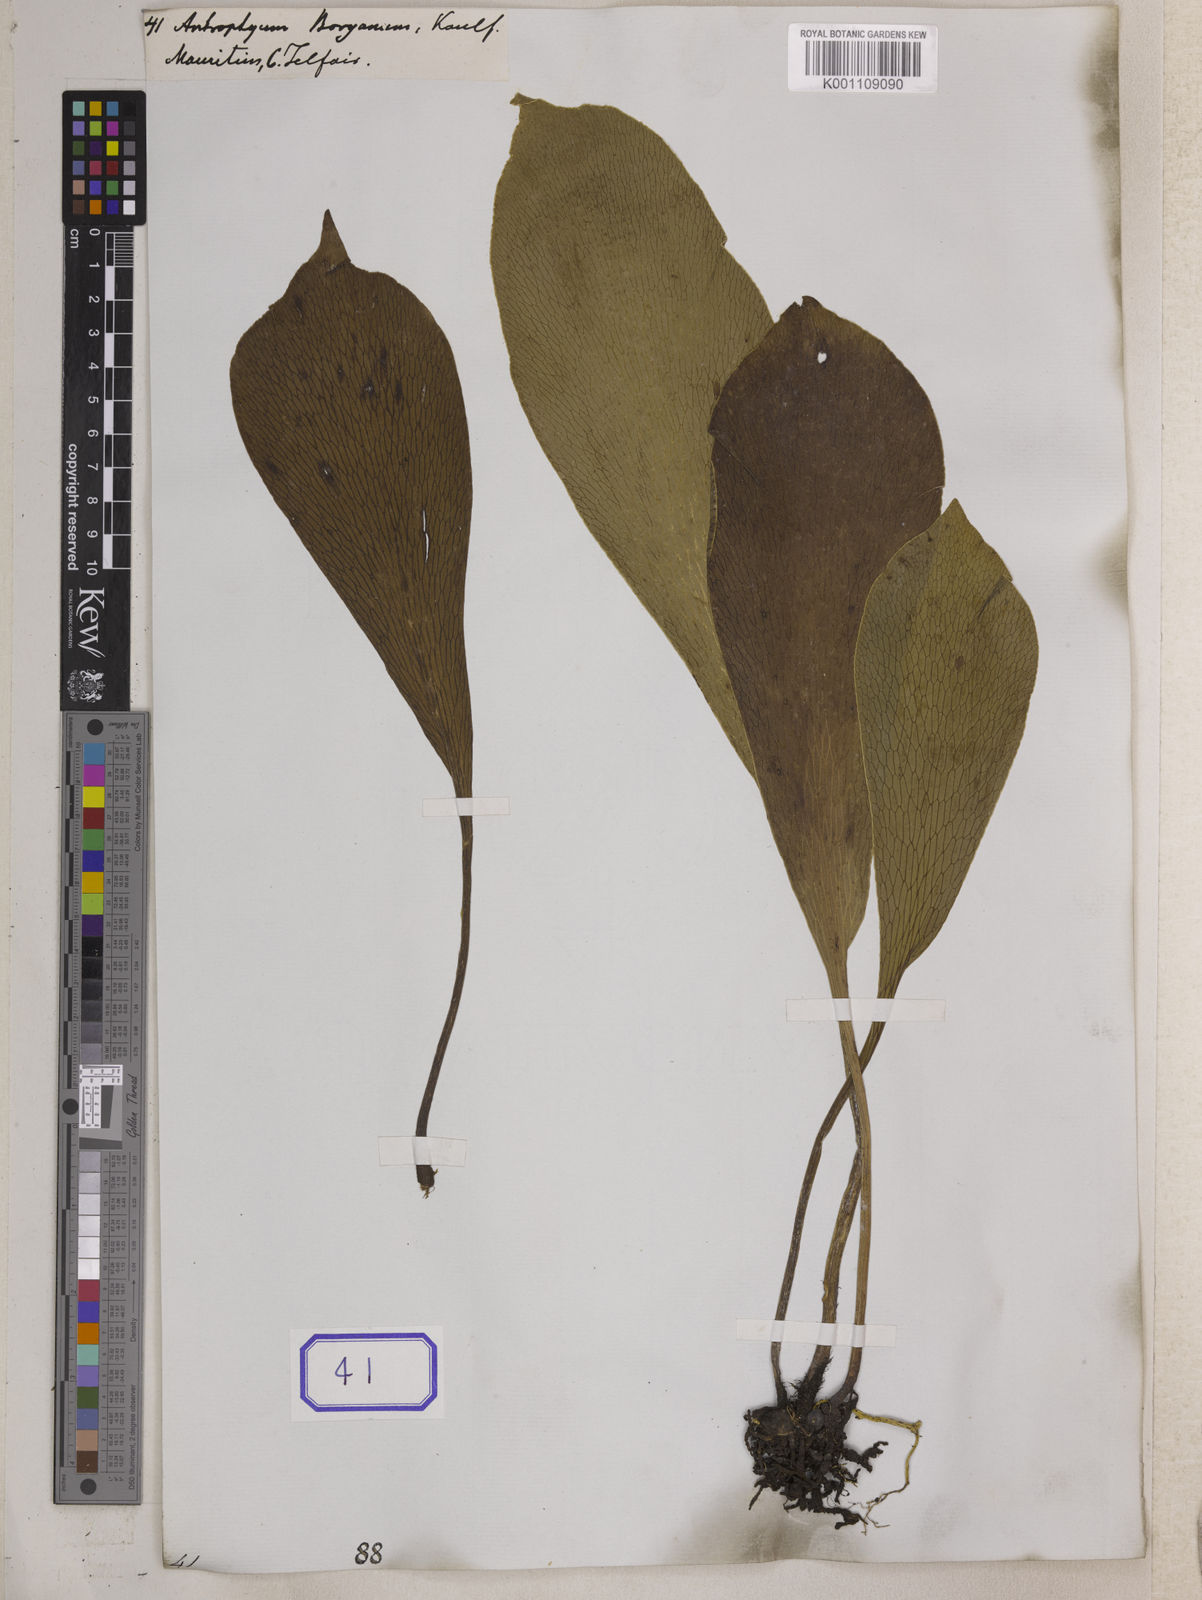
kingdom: Plantae
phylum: Tracheophyta
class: Polypodiopsida
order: Polypodiales
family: Pteridaceae
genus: Antrophyum
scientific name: Antrophyum
